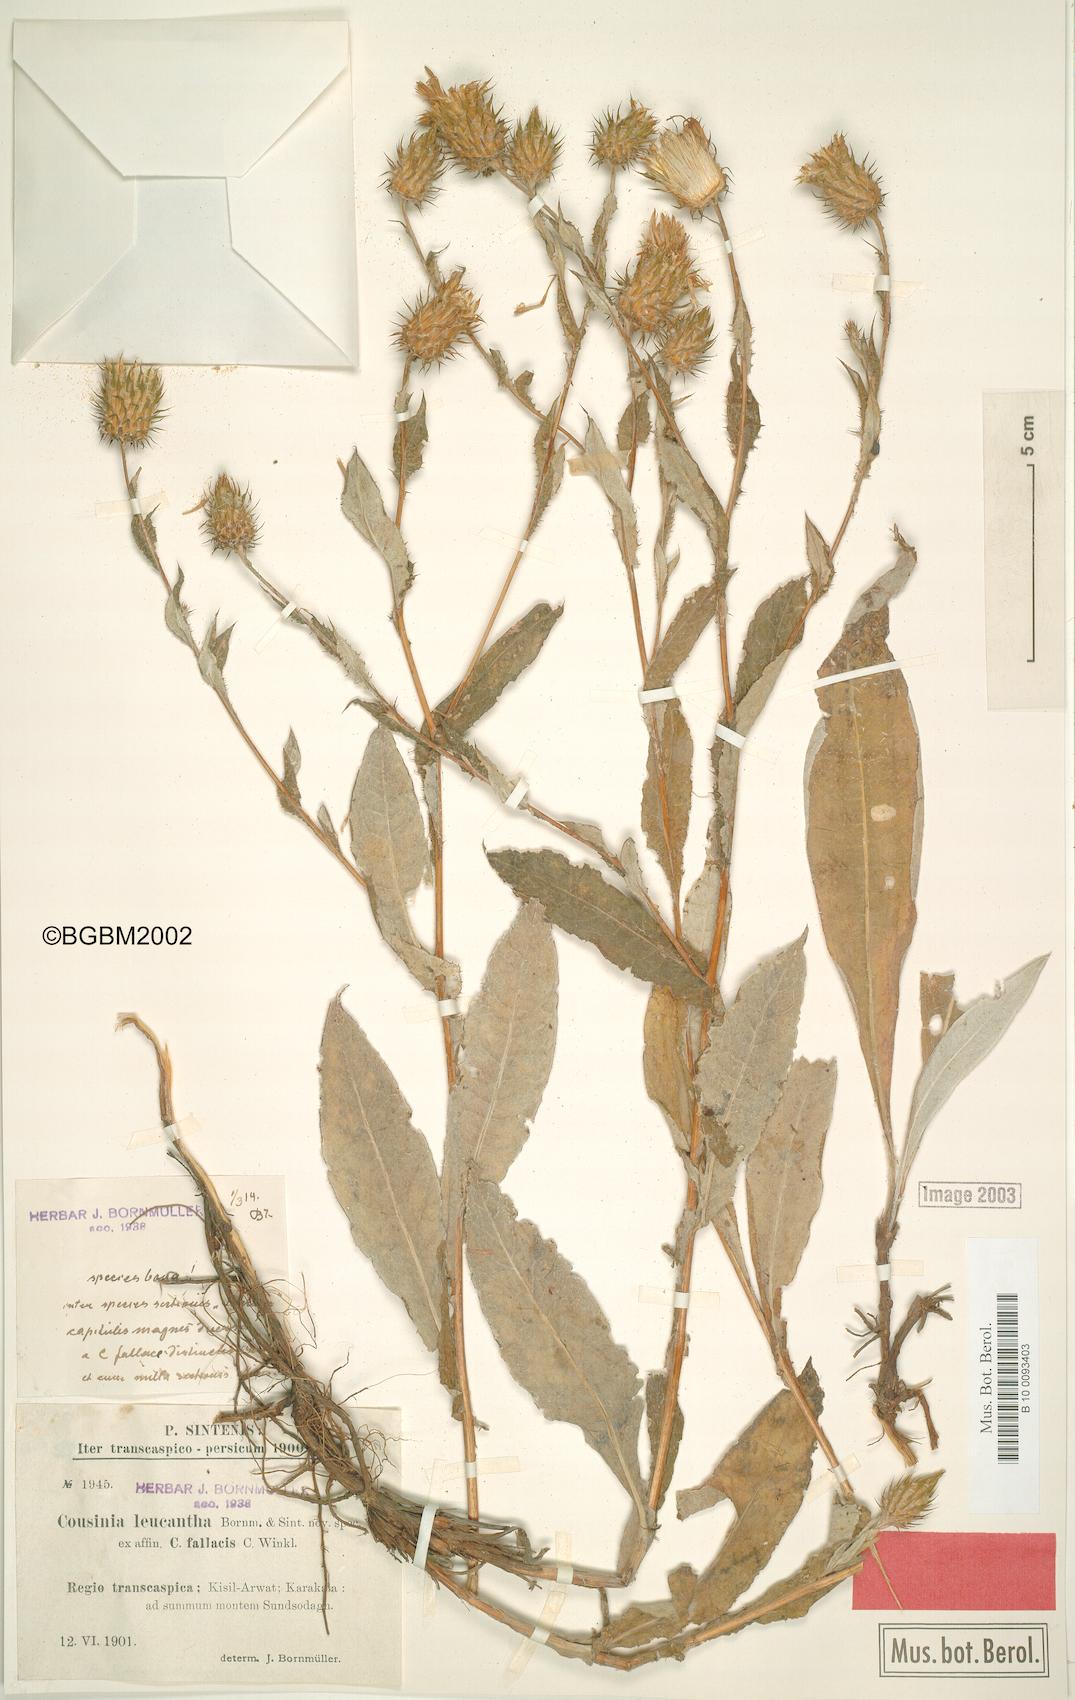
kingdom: Plantae
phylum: Tracheophyta
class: Magnoliopsida
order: Asterales
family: Asteraceae
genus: Cousinia
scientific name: Cousinia leucantha
